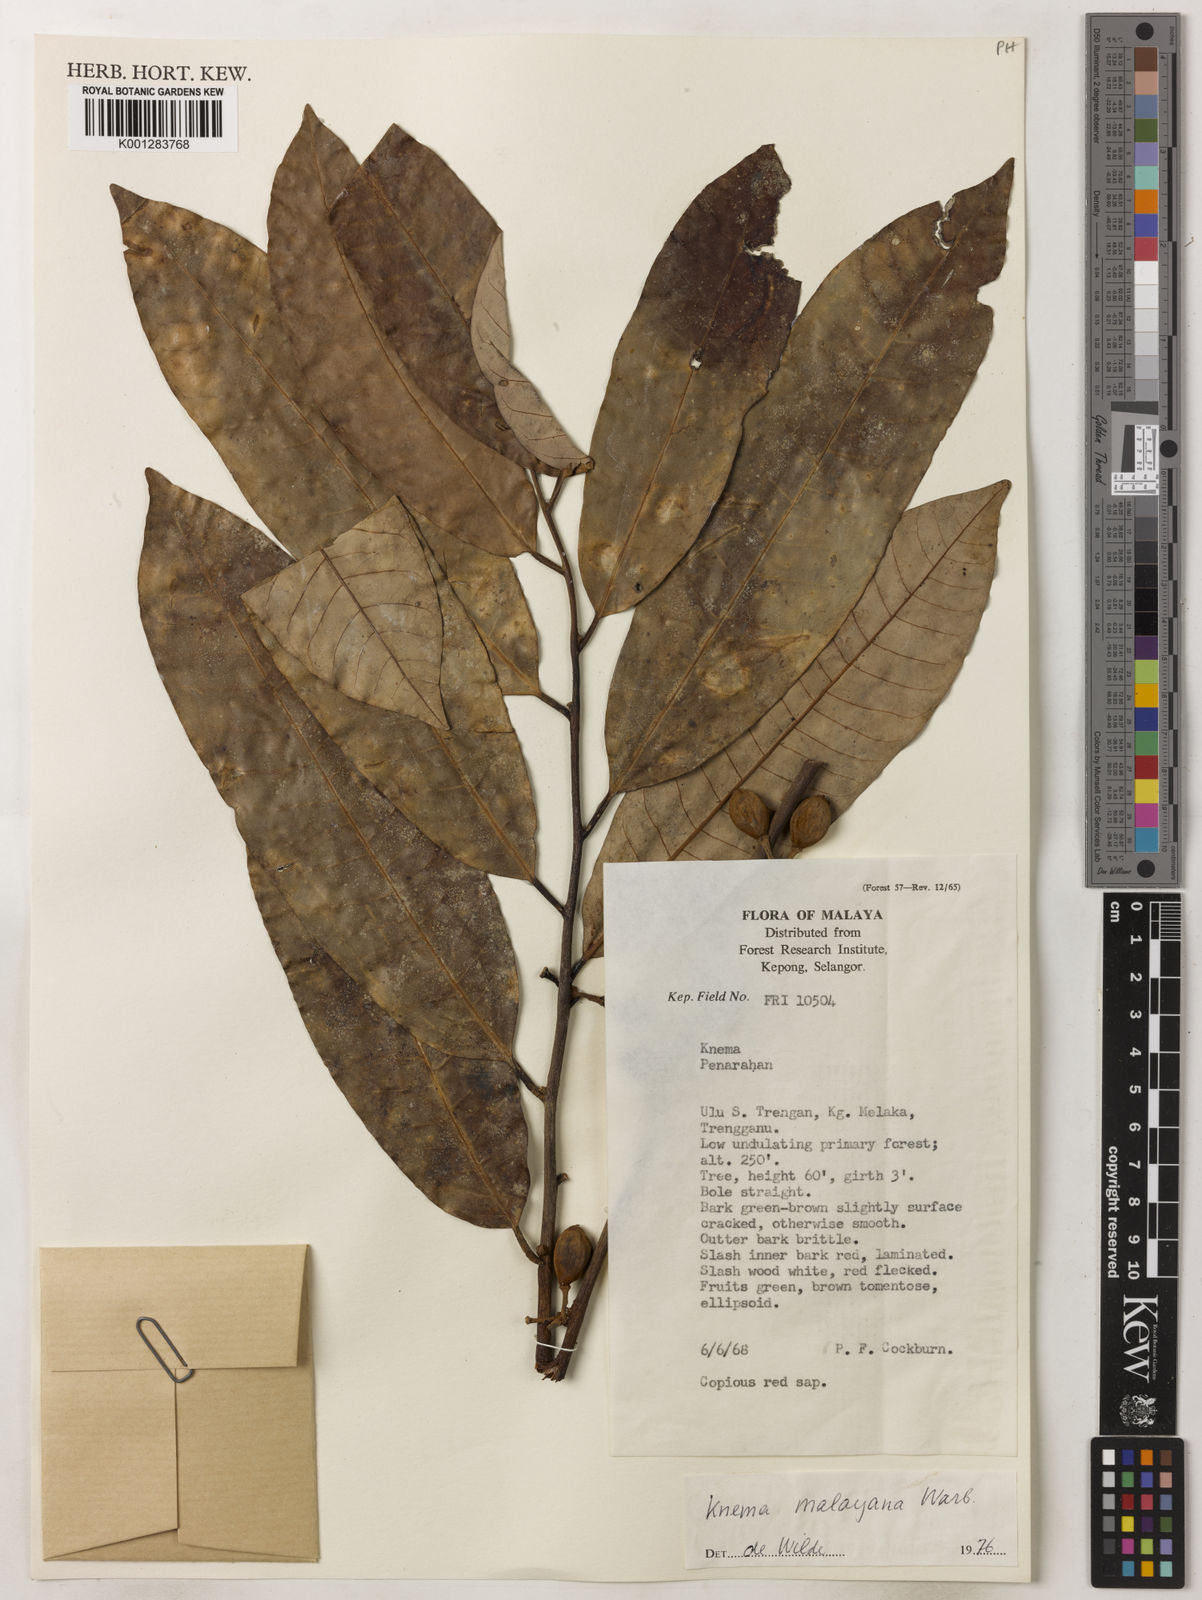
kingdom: Plantae
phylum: Tracheophyta
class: Magnoliopsida
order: Magnoliales
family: Myristicaceae
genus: Knema
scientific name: Knema malayana
